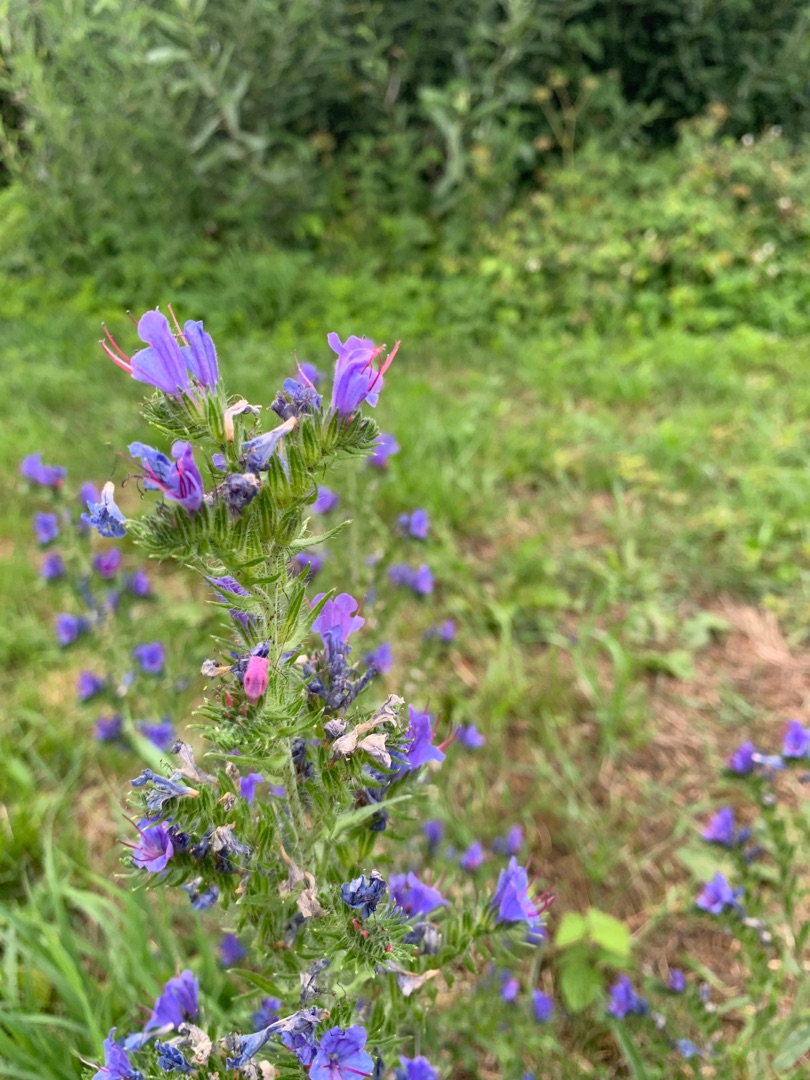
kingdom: Plantae
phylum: Tracheophyta
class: Magnoliopsida
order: Boraginales
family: Boraginaceae
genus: Echium
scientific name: Echium vulgare
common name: Slangehoved
